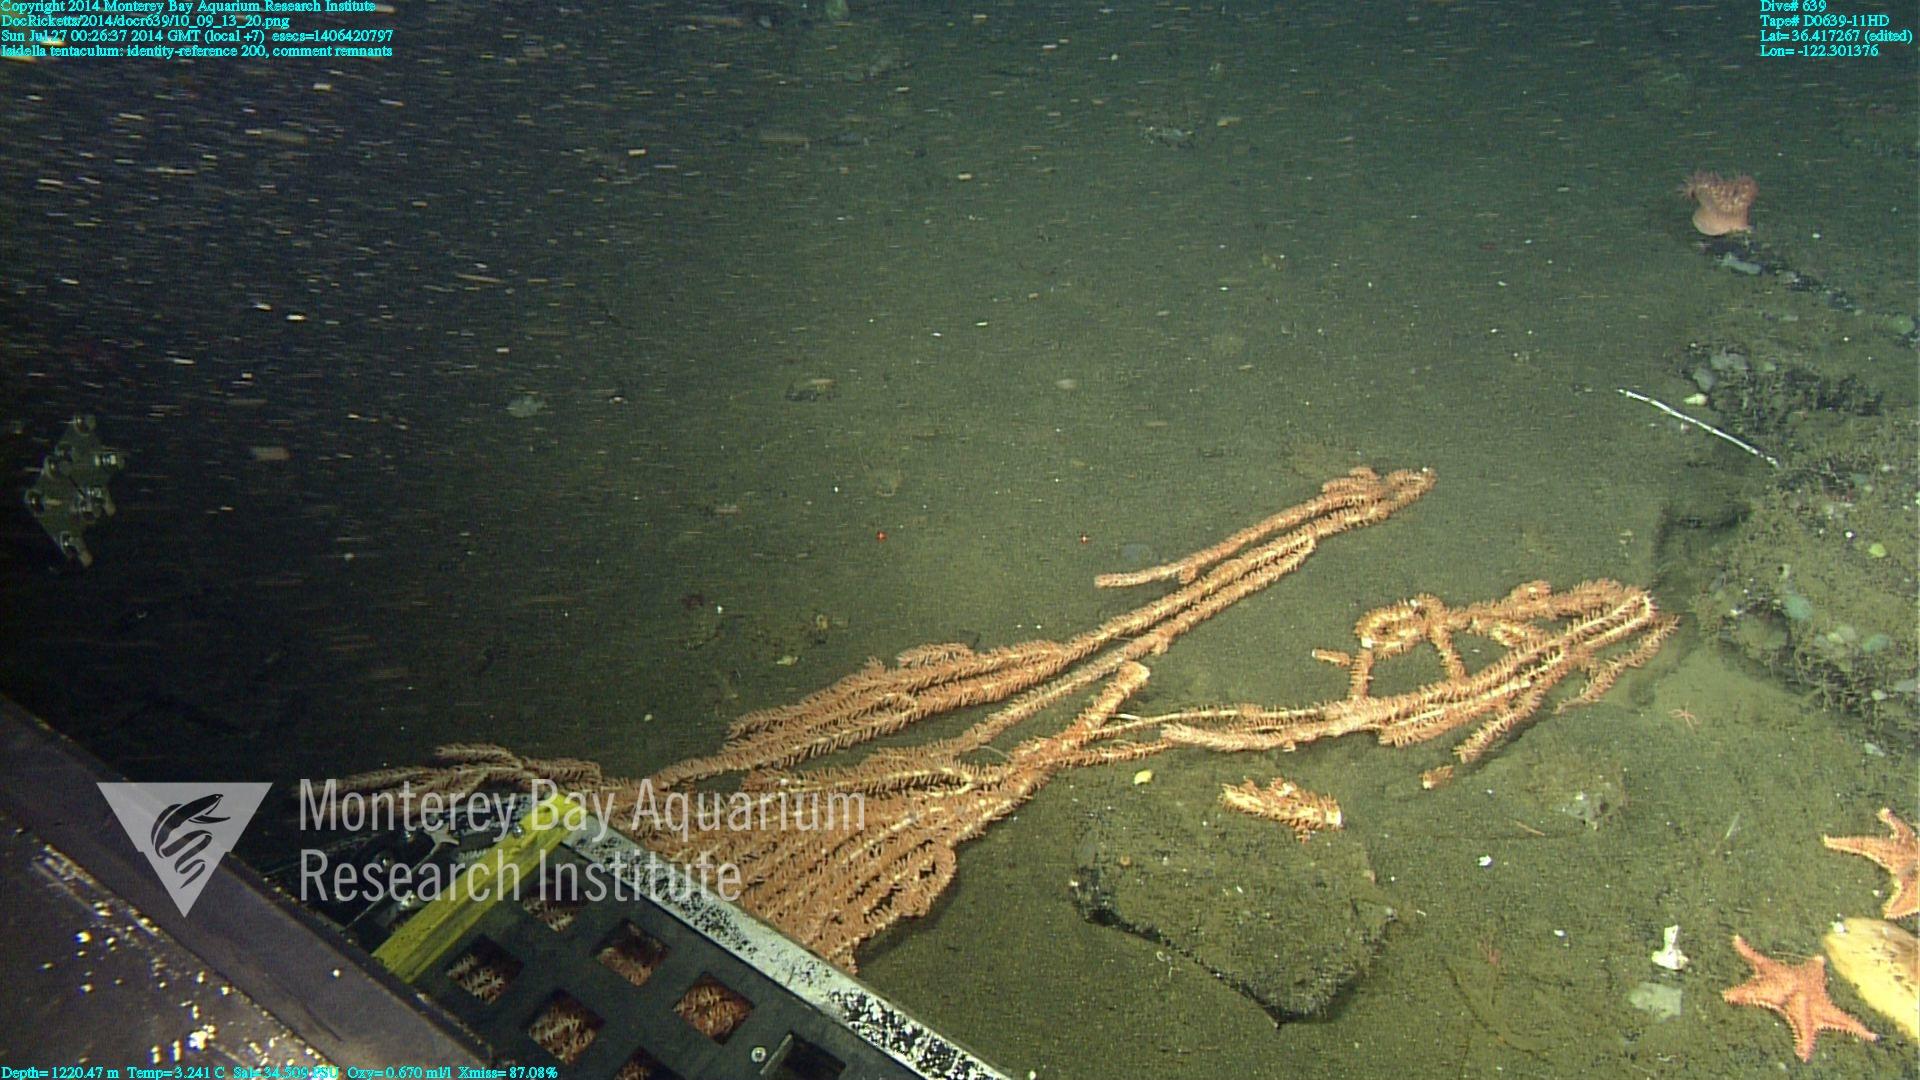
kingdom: Animalia
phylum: Cnidaria
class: Anthozoa
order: Scleralcyonacea
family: Keratoisididae
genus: Isidella
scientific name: Isidella tentaculum
